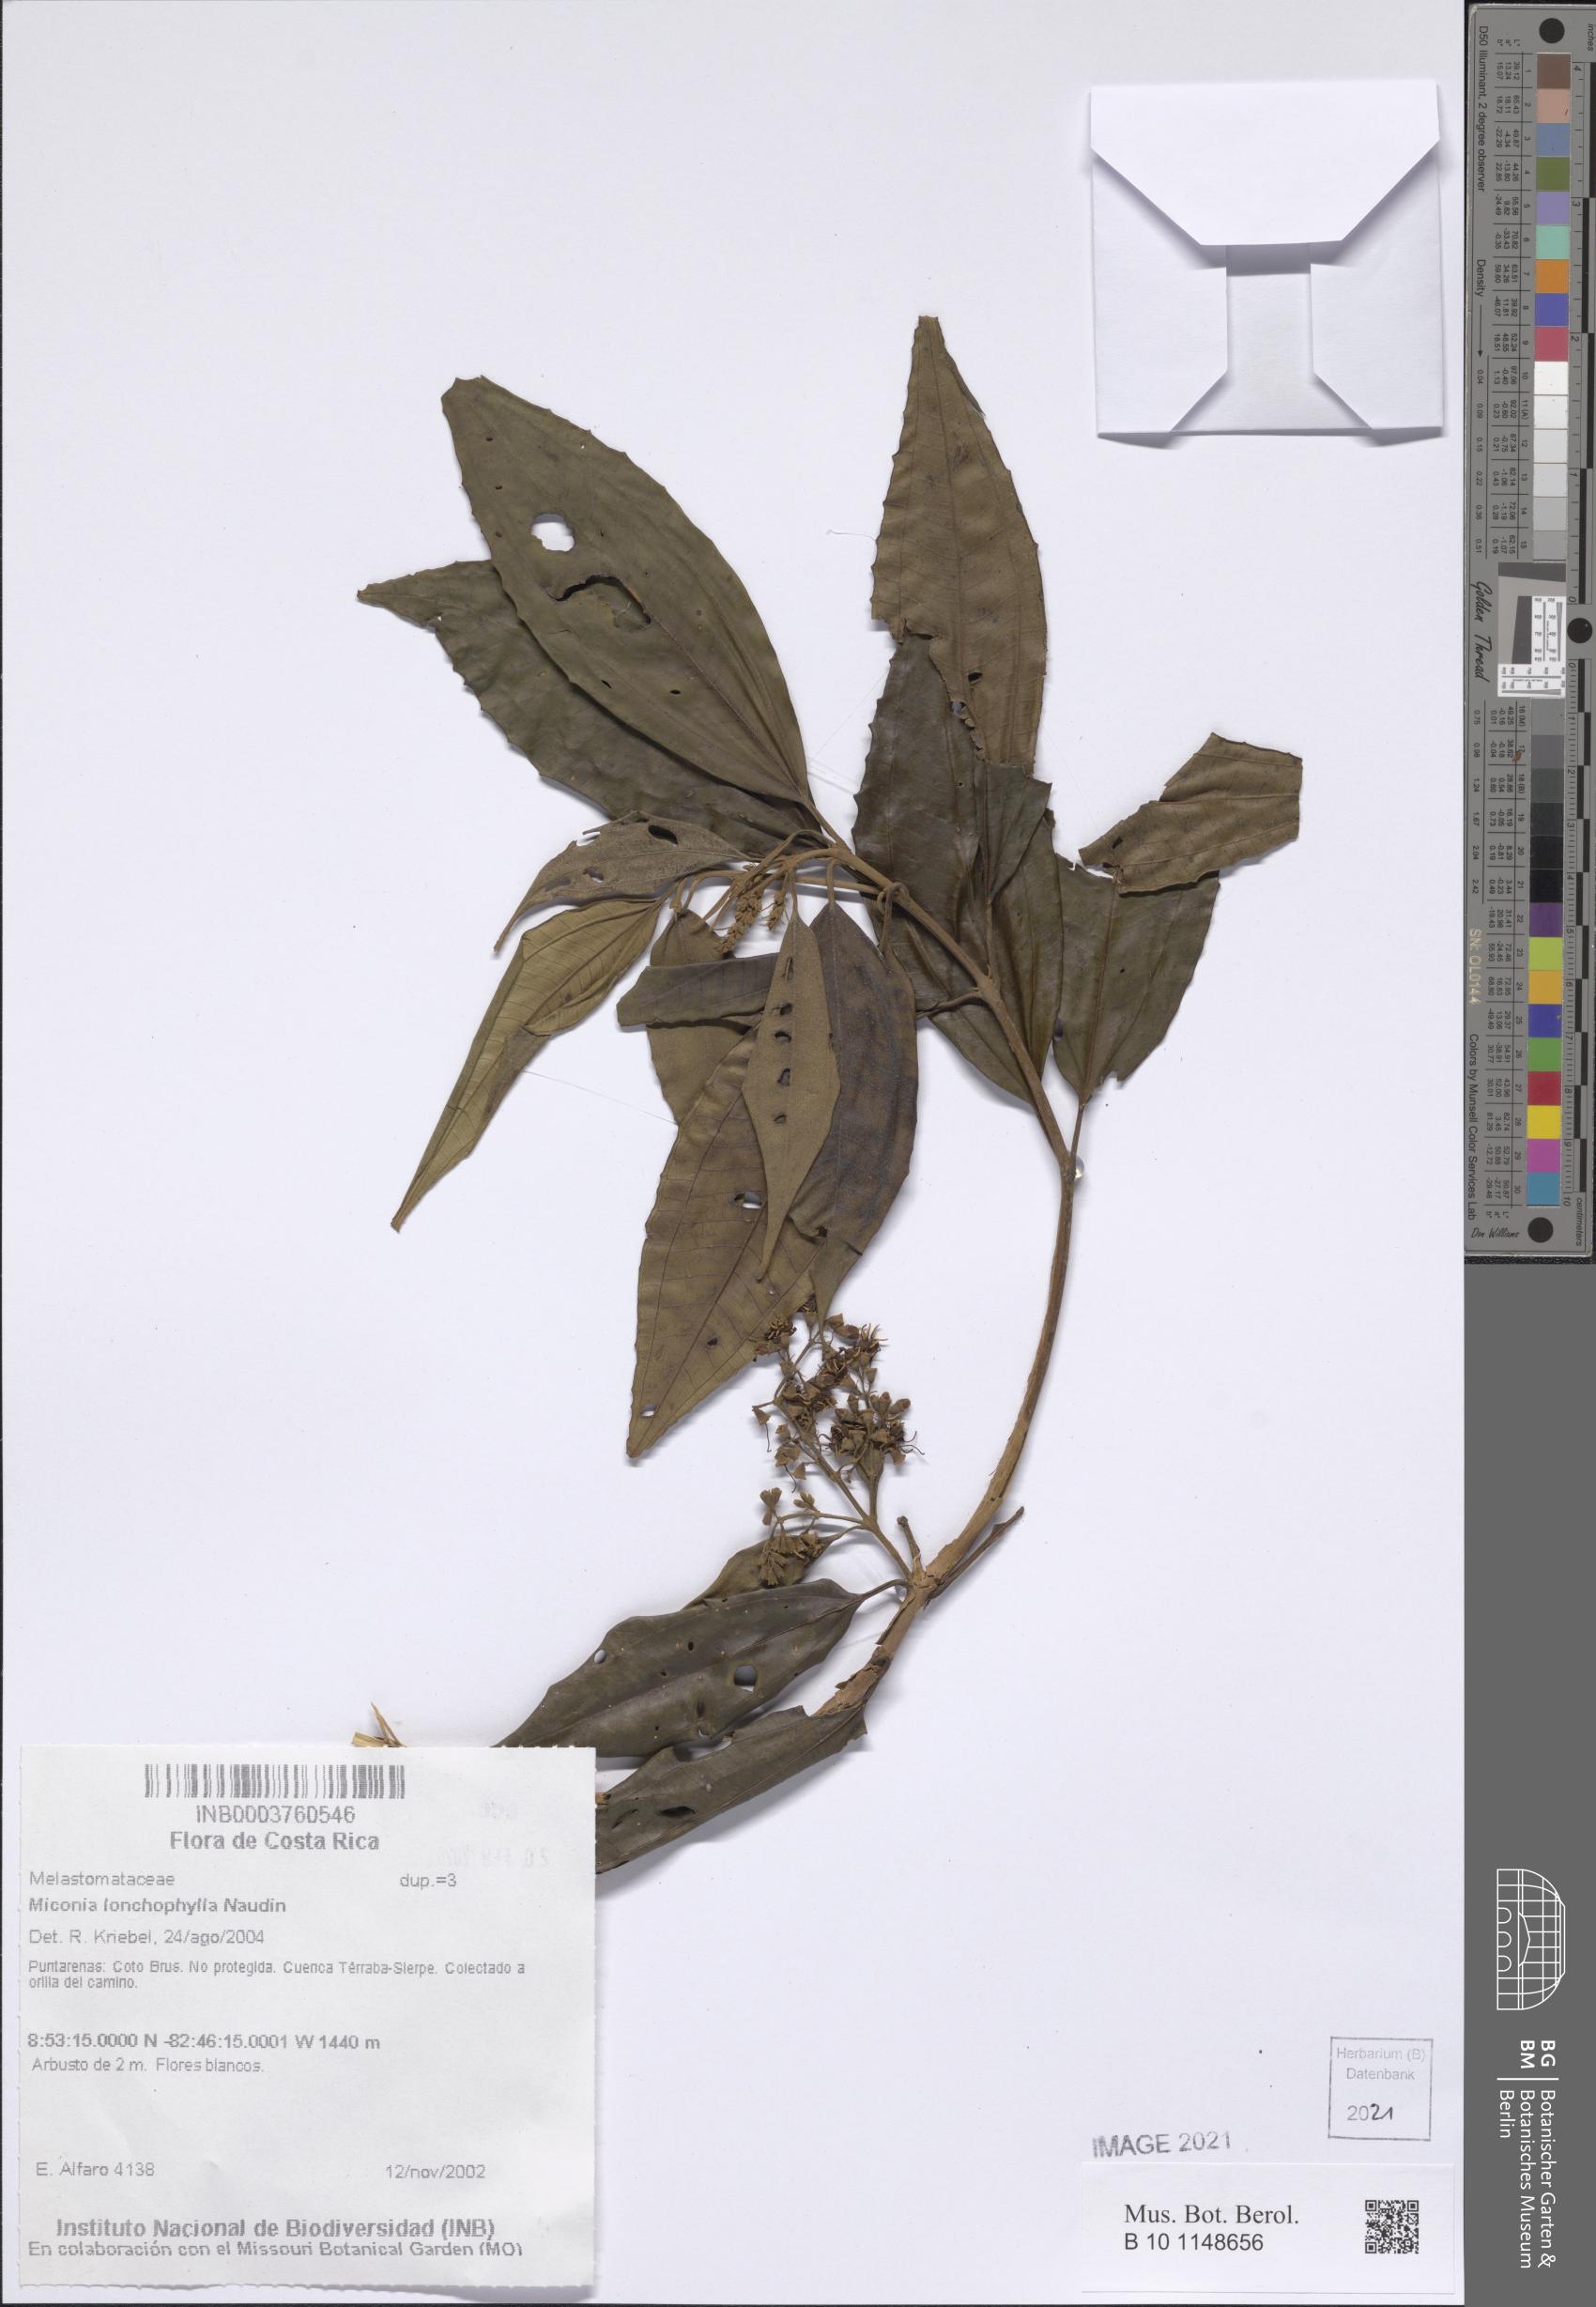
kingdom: Plantae
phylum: Tracheophyta
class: Magnoliopsida
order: Myrtales
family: Melastomataceae
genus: Miconia
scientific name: Miconia lonchophylla
